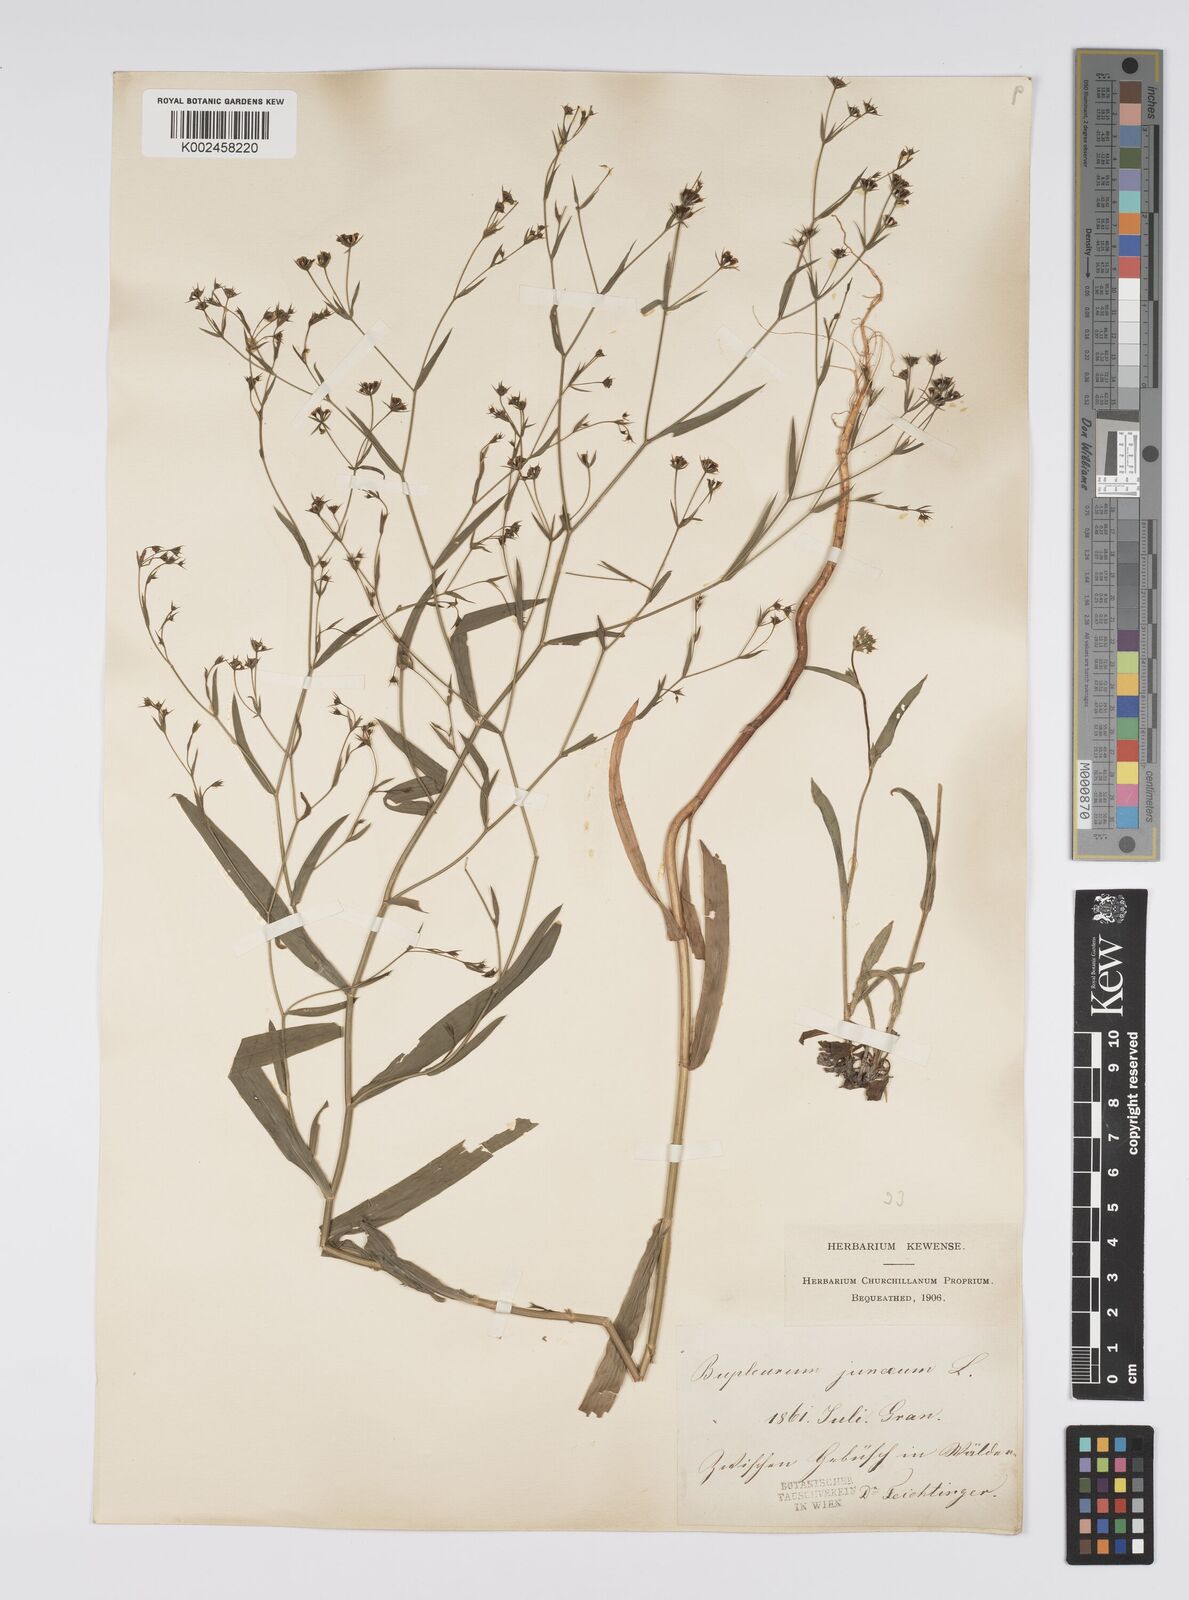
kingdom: Plantae
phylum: Tracheophyta
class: Magnoliopsida
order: Apiales
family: Apiaceae
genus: Bupleurum
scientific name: Bupleurum praealtum
